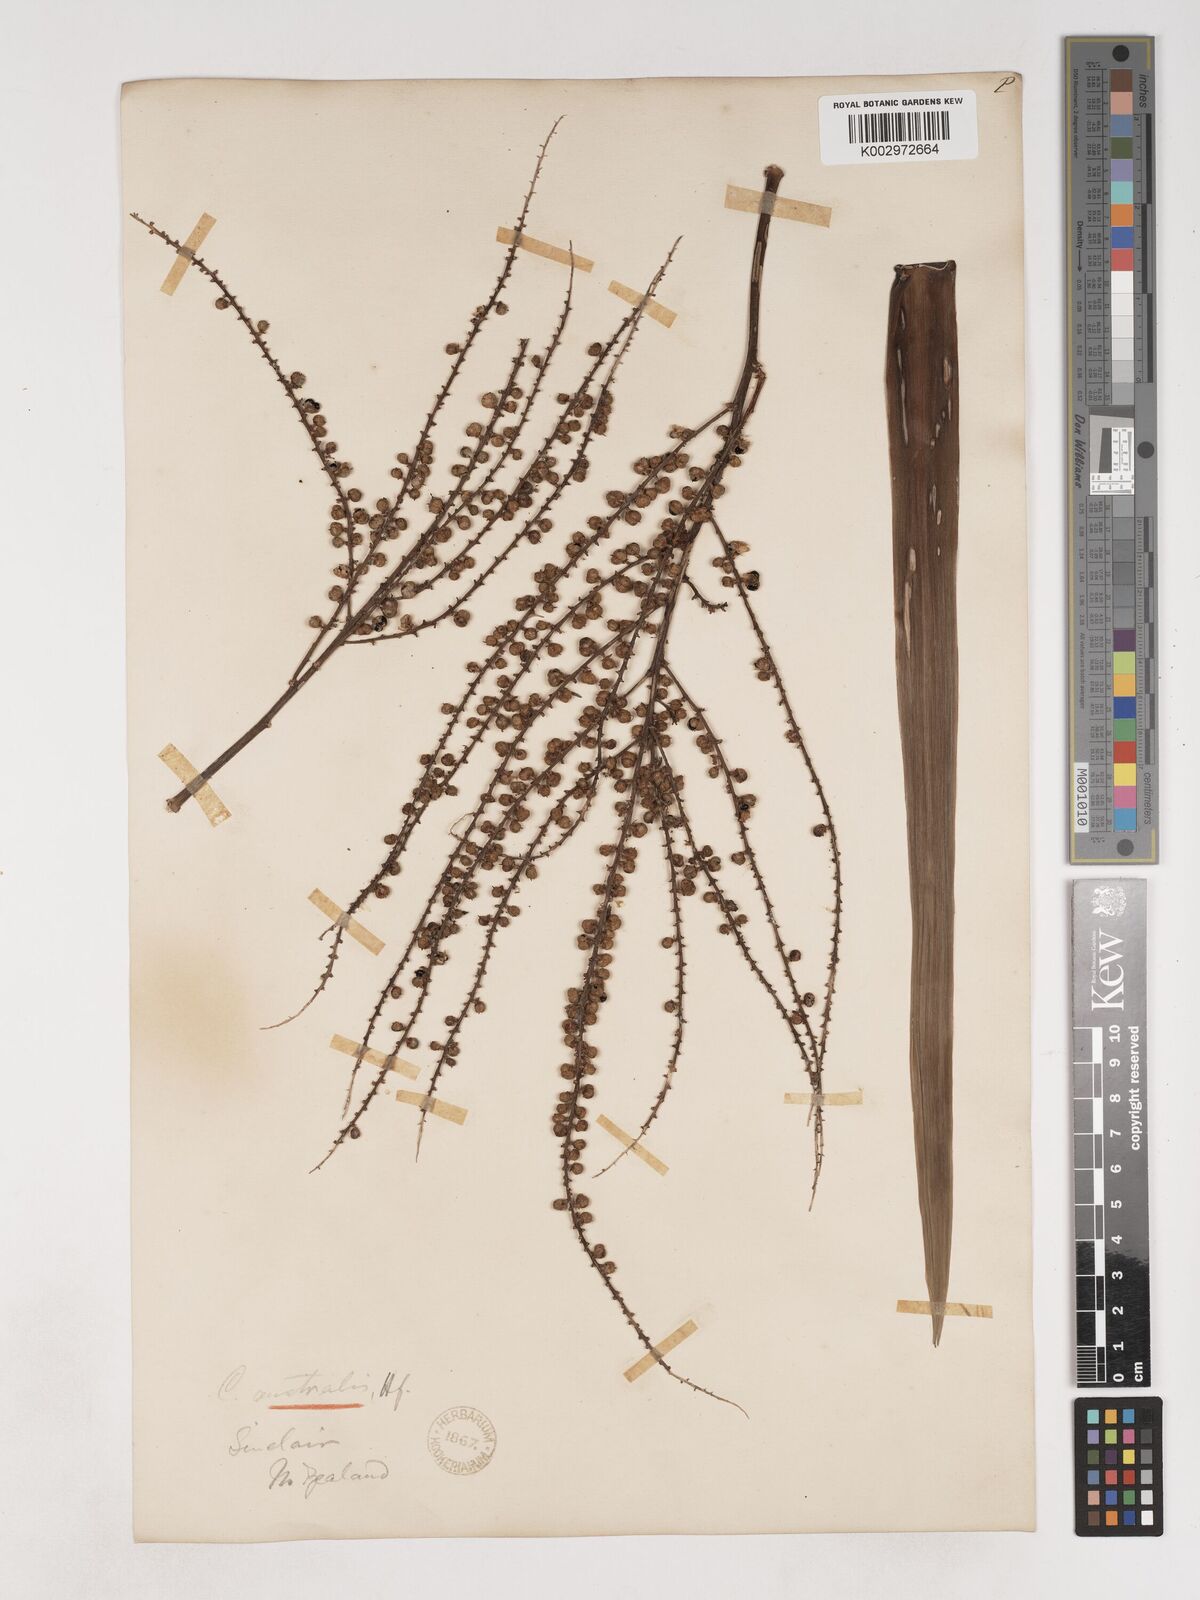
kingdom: Plantae
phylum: Tracheophyta
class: Liliopsida
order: Asparagales
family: Asparagaceae
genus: Cordyline
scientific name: Cordyline australis
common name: Cabbage-palm
